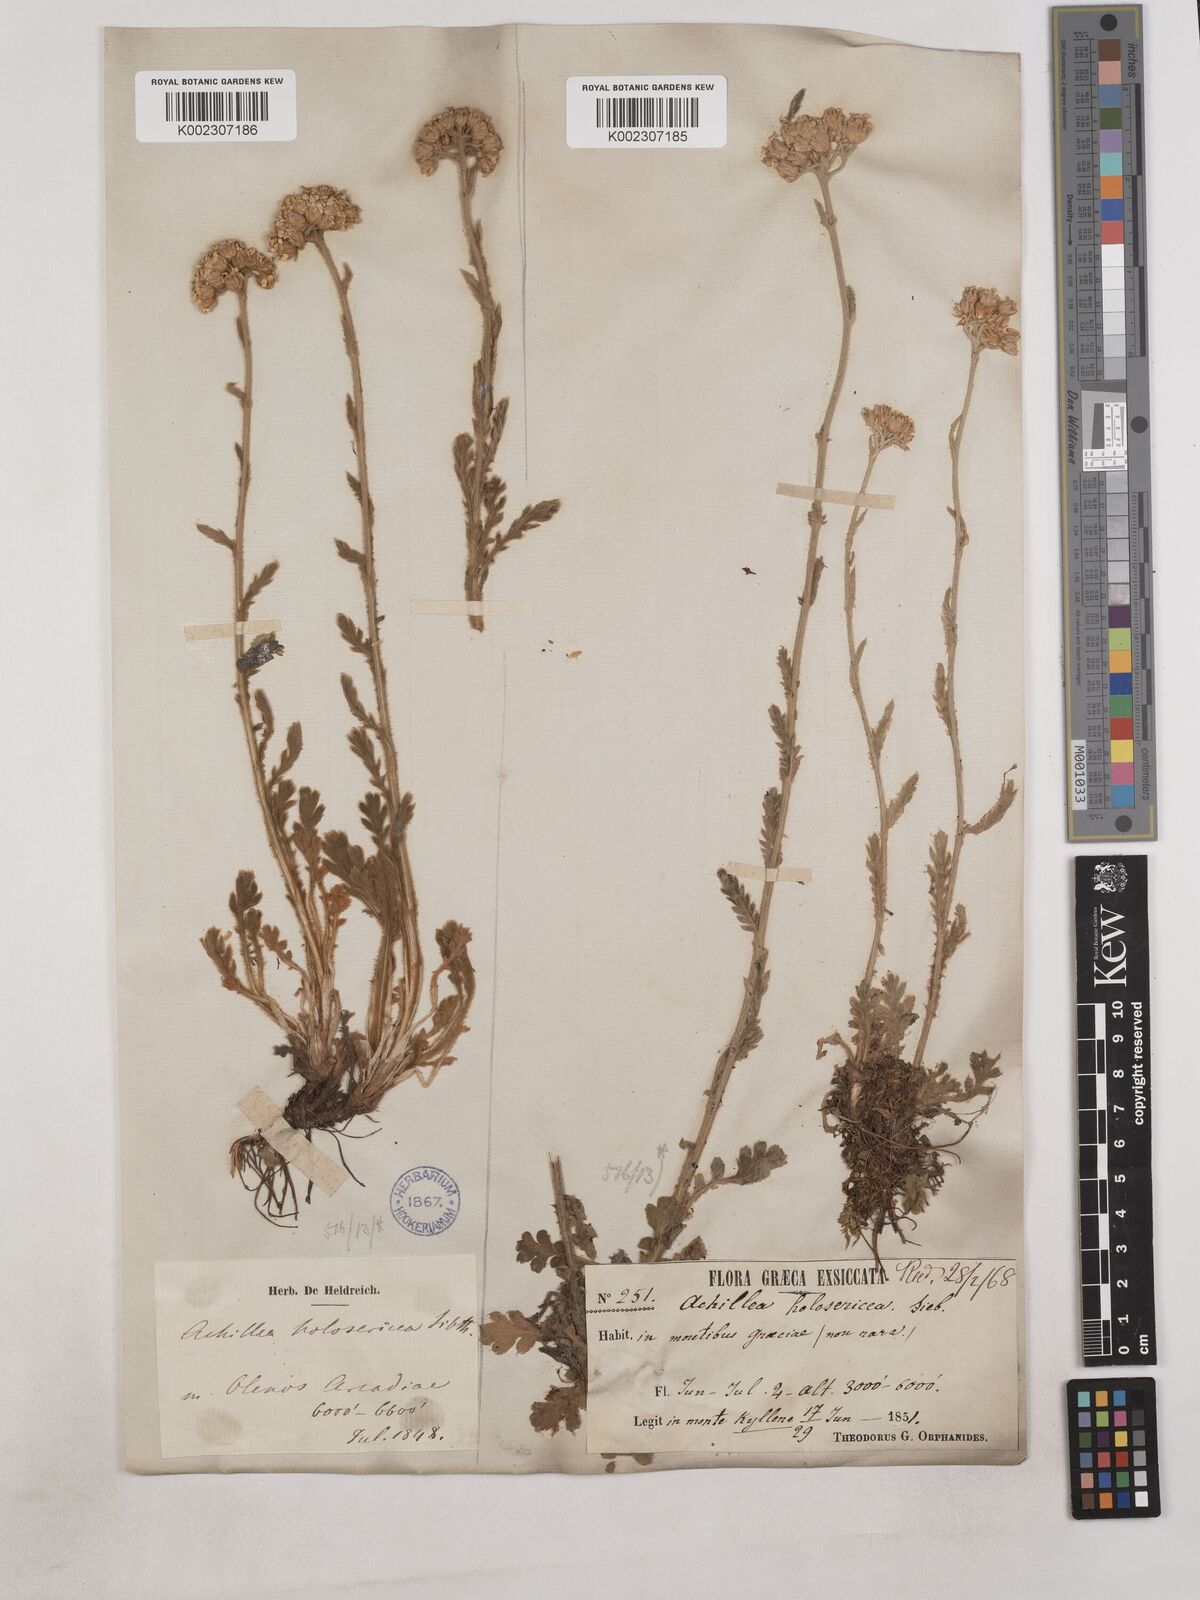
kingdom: Plantae
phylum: Tracheophyta
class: Magnoliopsida
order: Asterales
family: Asteraceae
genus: Achillea
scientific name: Achillea holosericea
